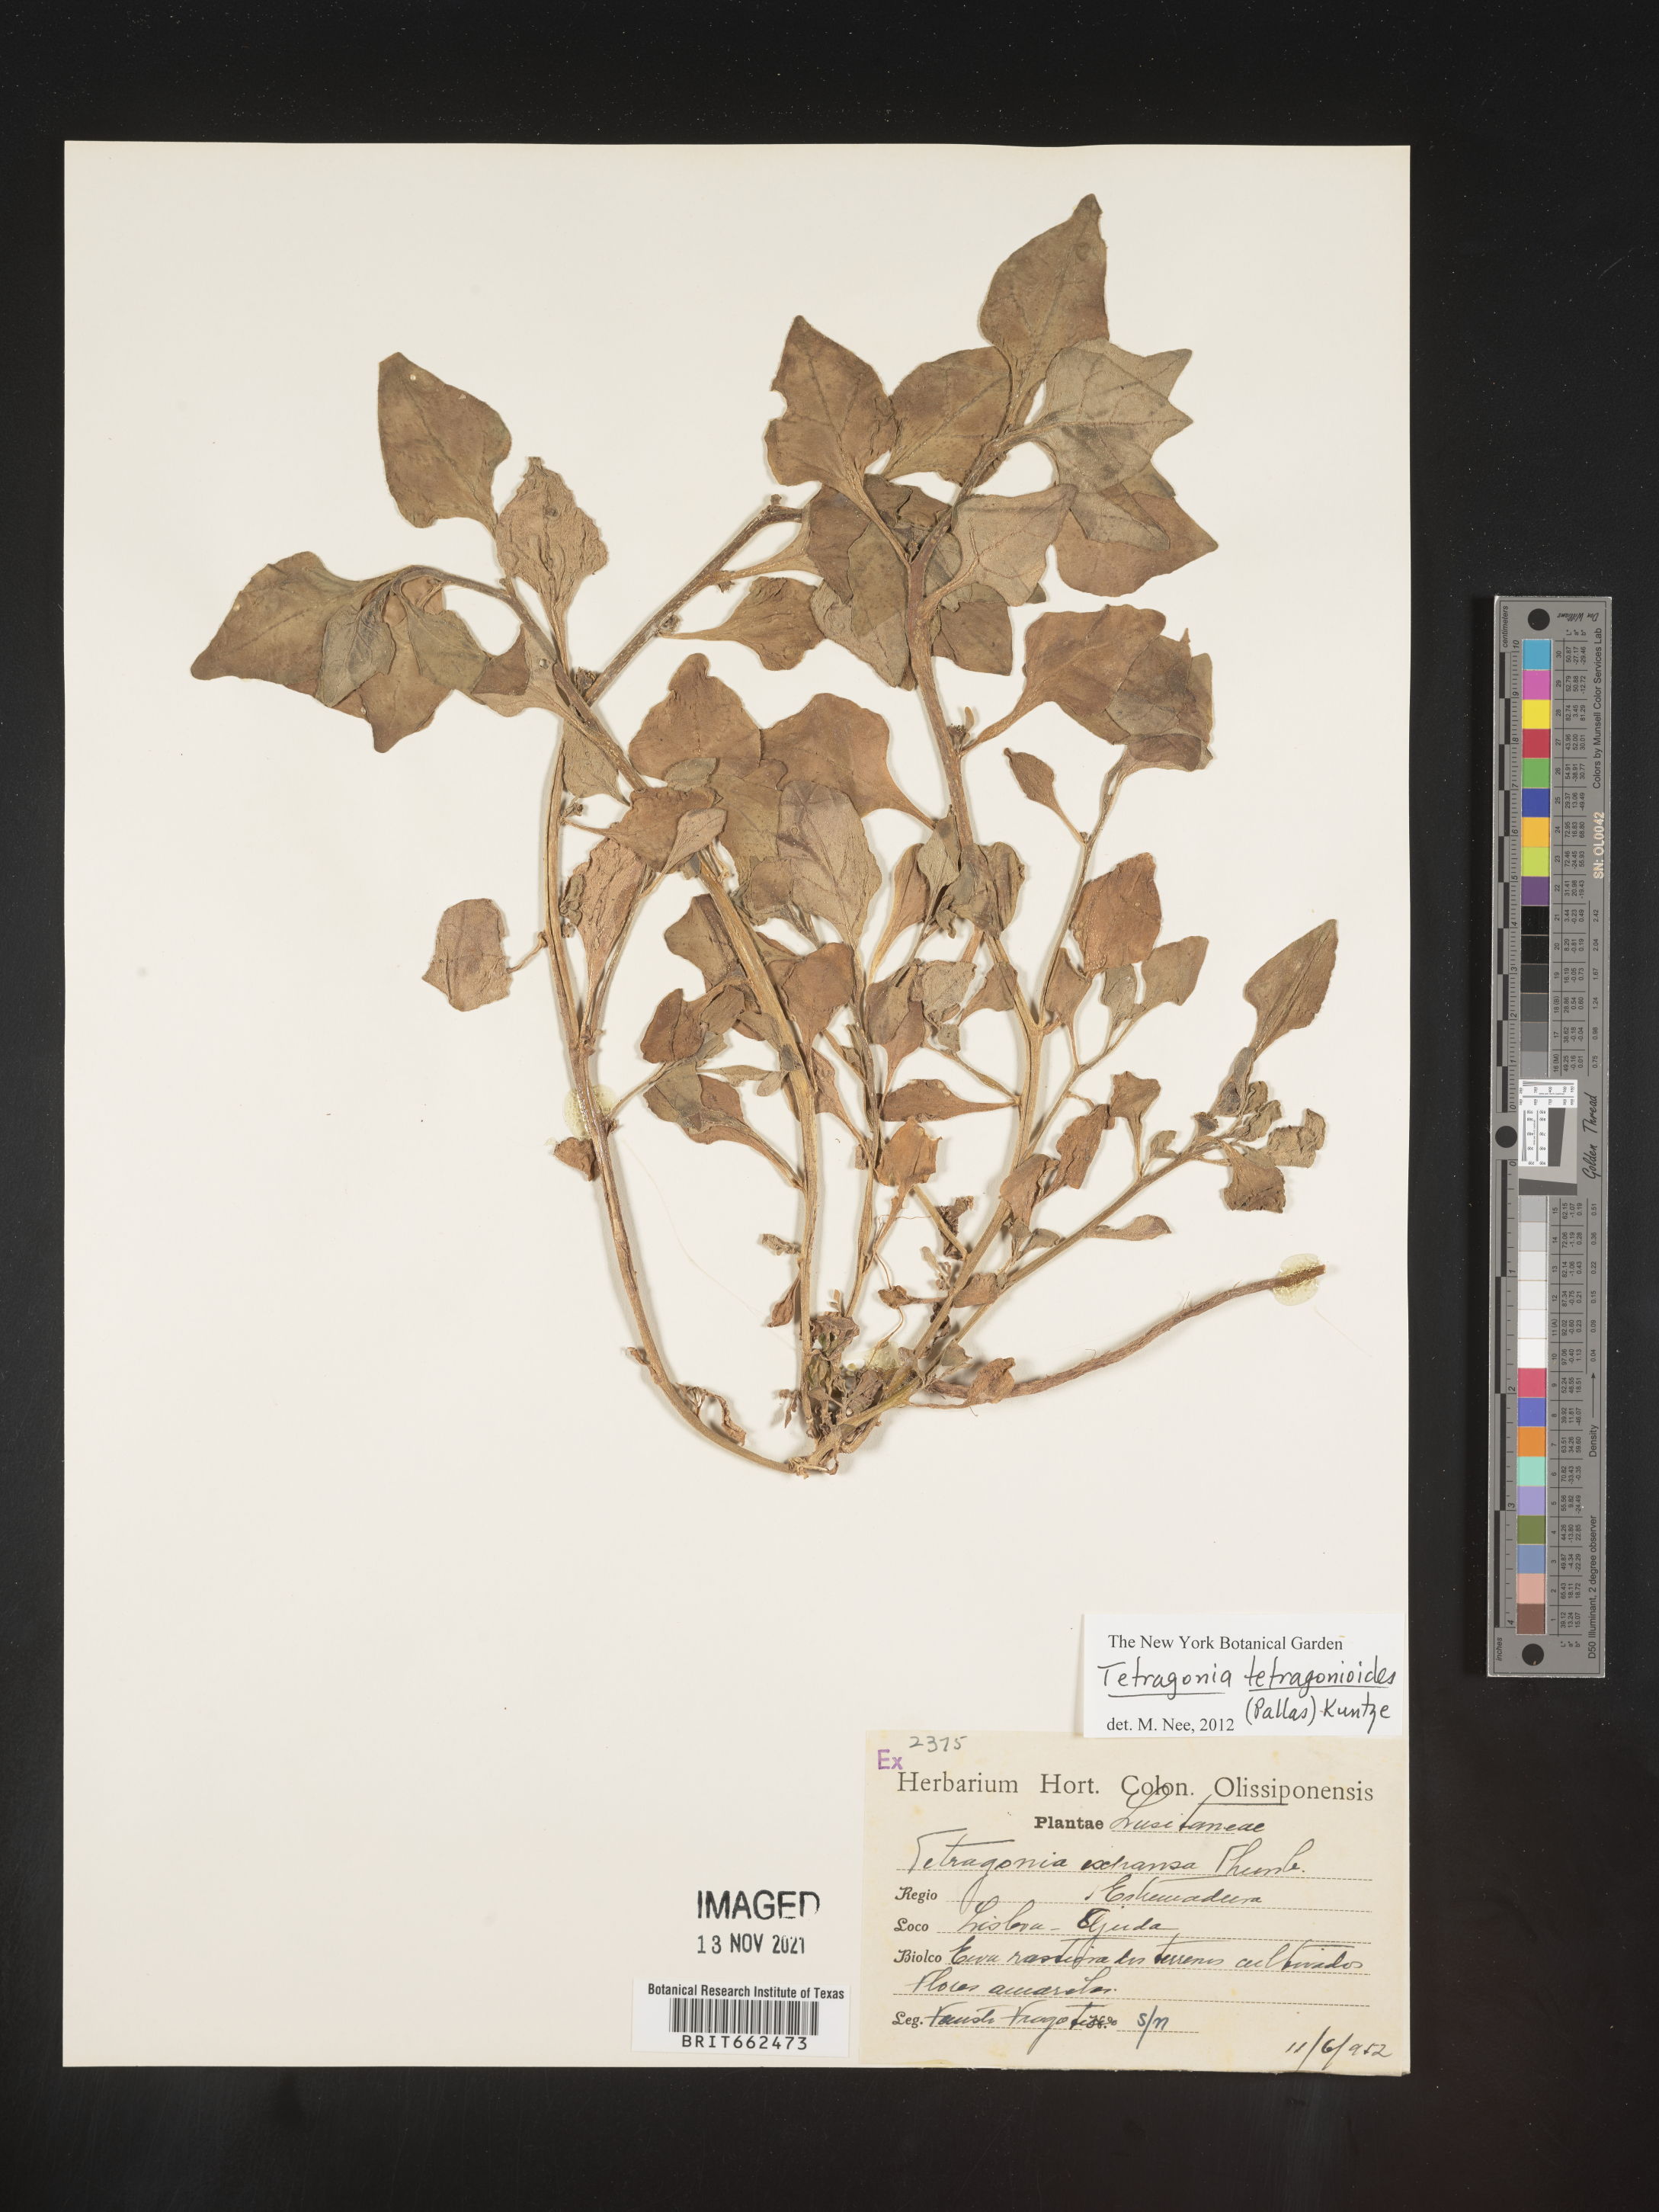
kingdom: Plantae
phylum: Tracheophyta
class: Magnoliopsida
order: Caryophyllales
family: Aizoaceae
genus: Tetragonia
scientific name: Tetragonia
